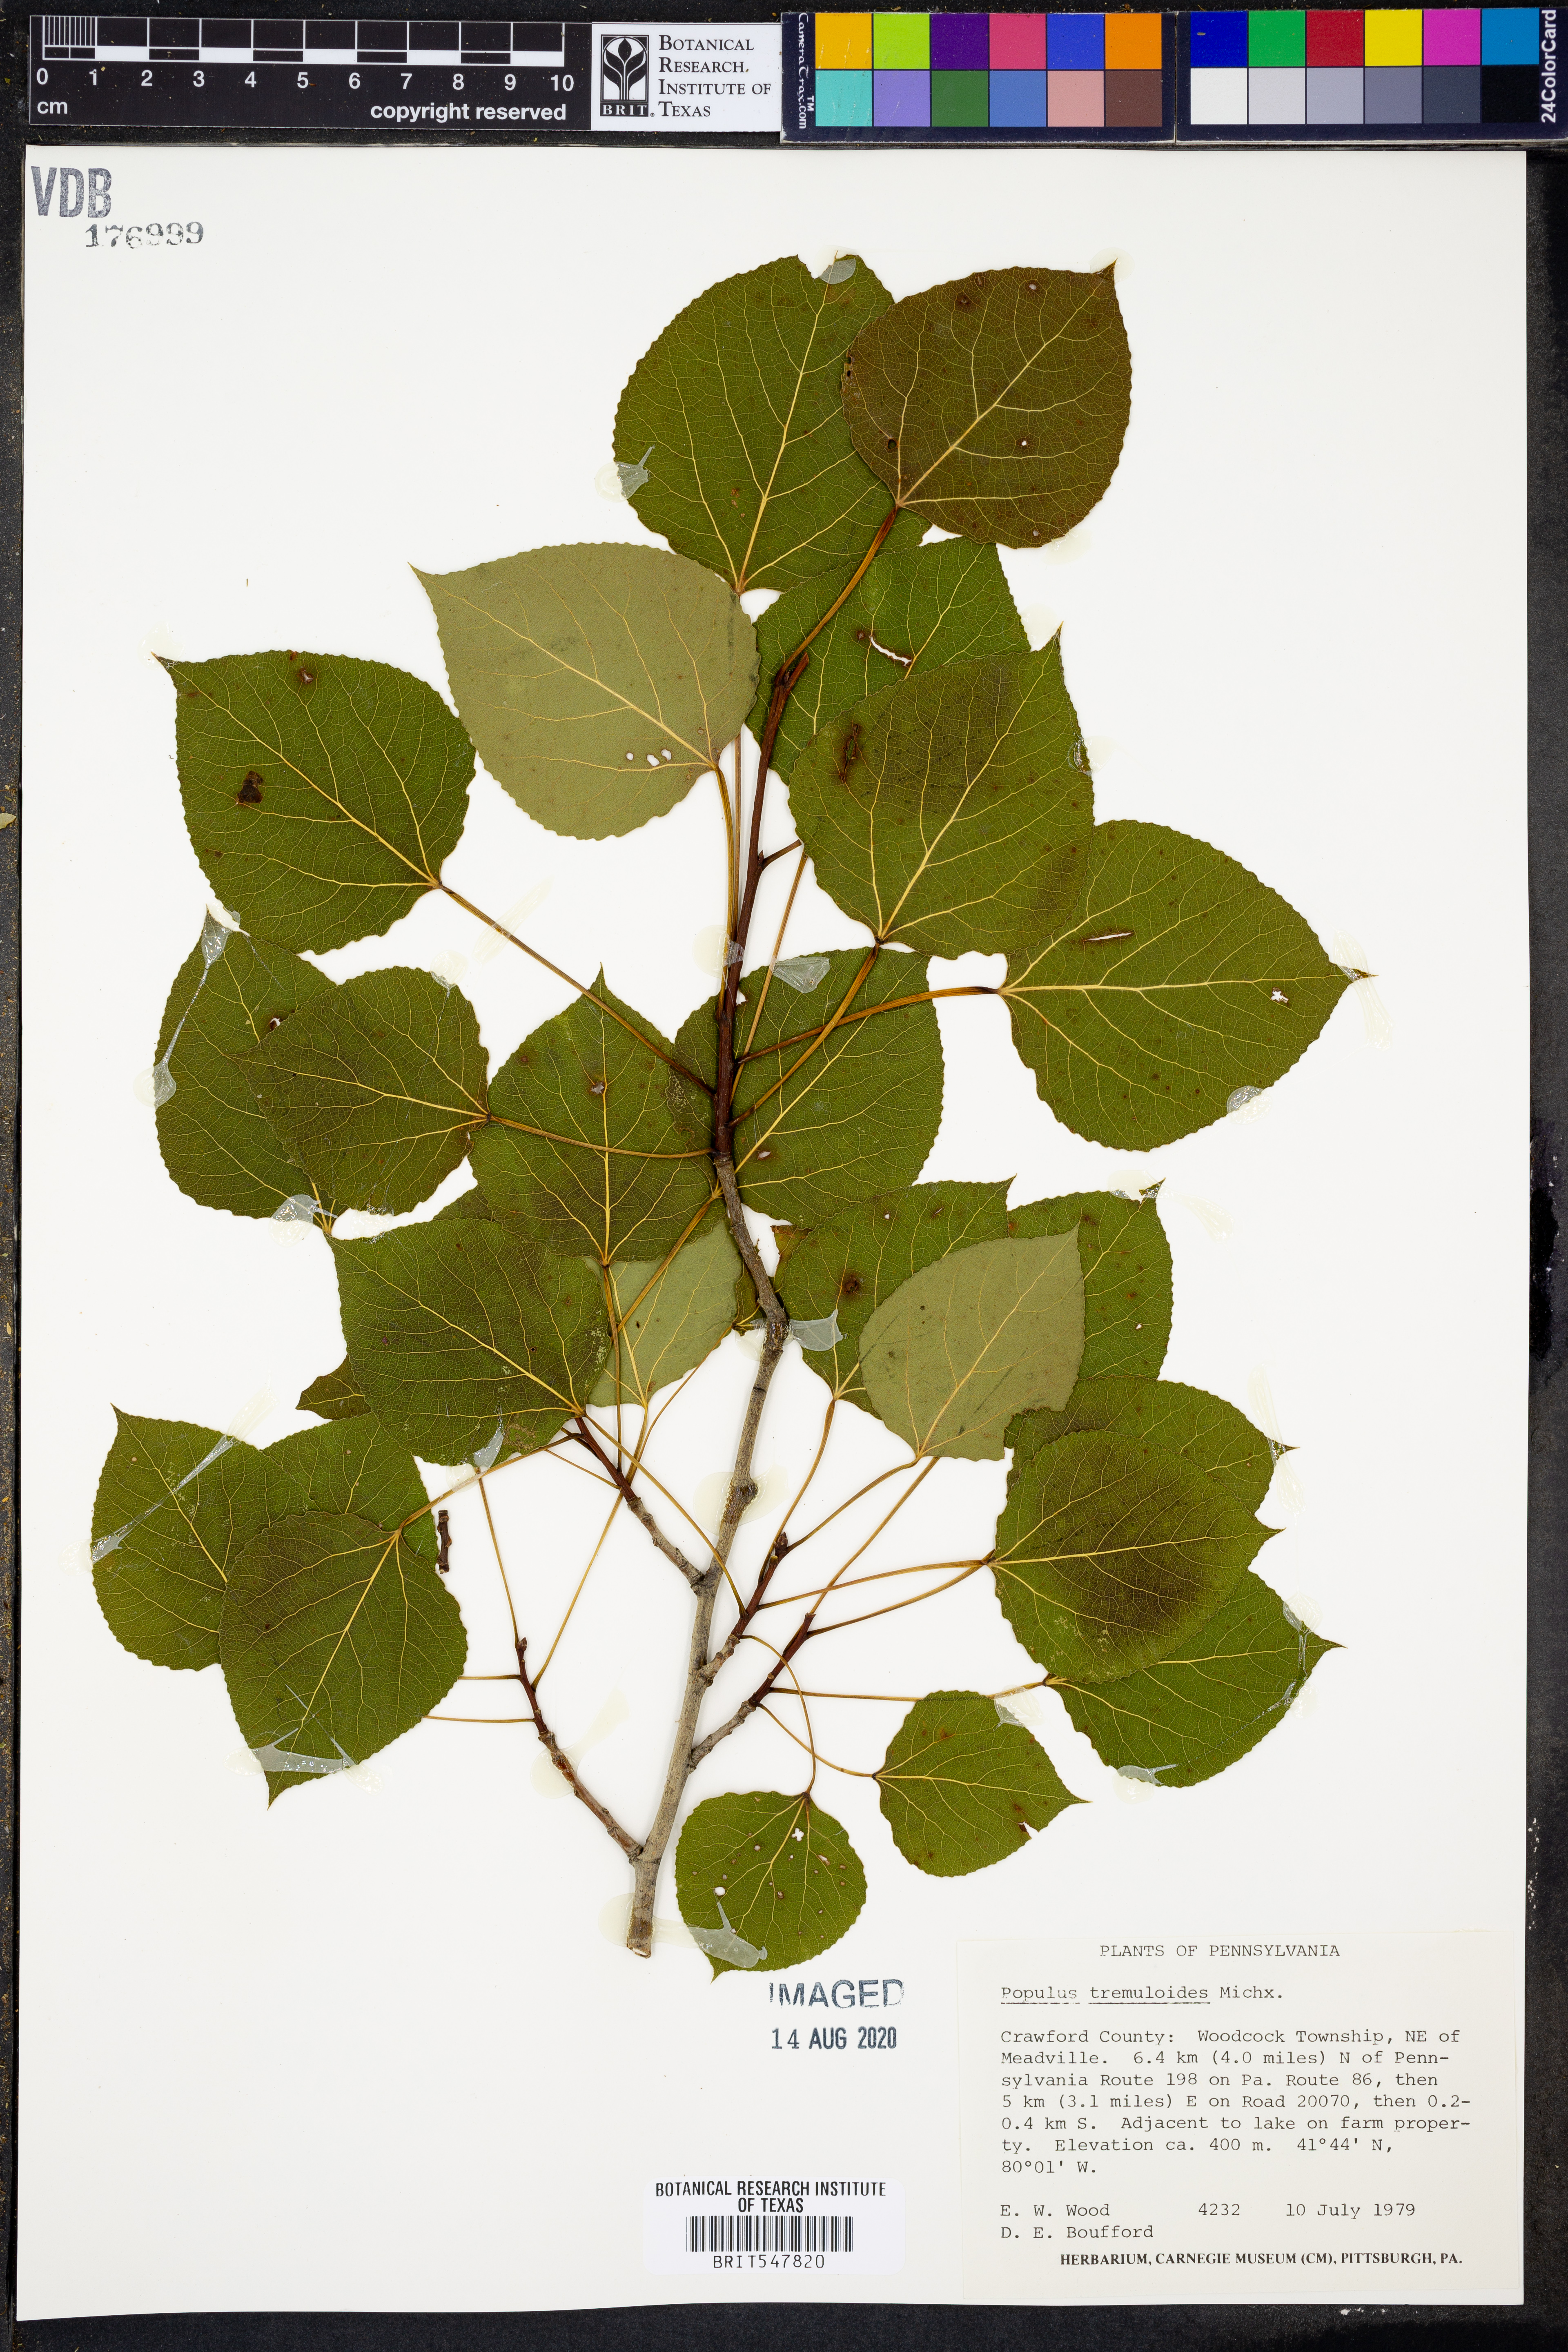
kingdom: Plantae
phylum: Tracheophyta
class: Magnoliopsida
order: Malpighiales
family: Salicaceae
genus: Populus
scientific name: Populus tremuloides
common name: Quaking aspen
